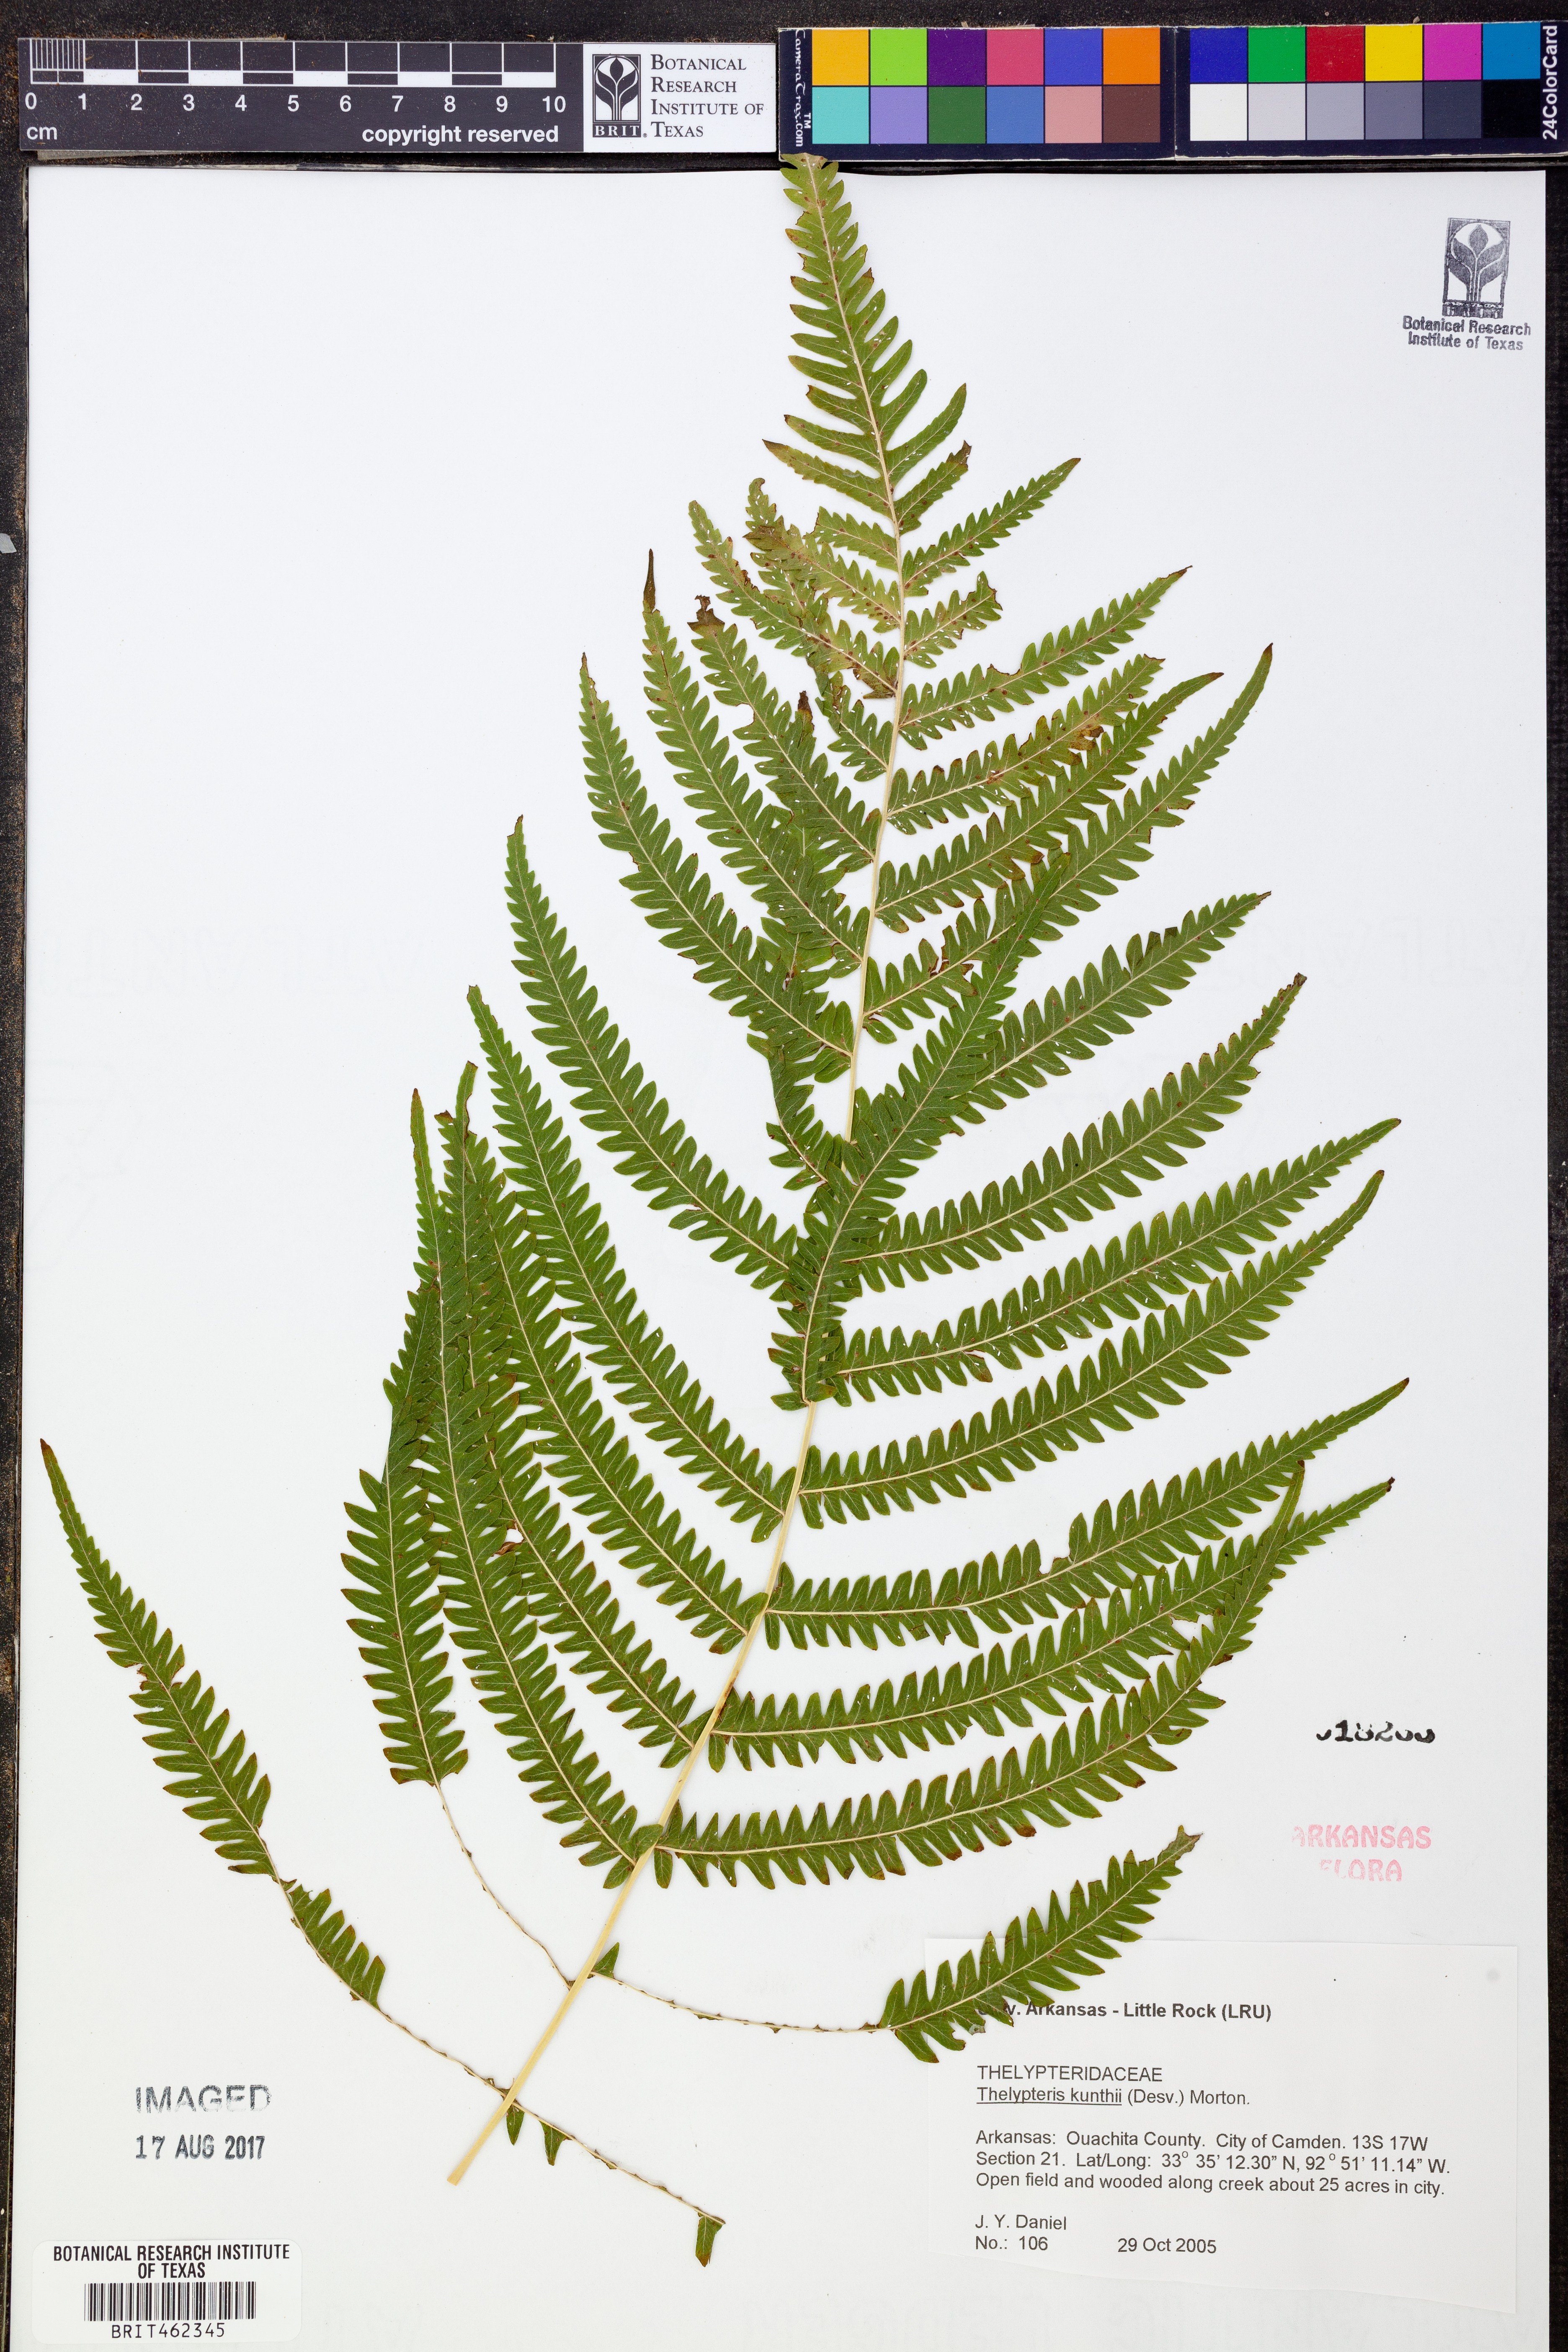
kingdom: Plantae
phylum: Tracheophyta
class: Polypodiopsida
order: Polypodiales
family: Thelypteridaceae
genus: Pelazoneuron
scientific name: Pelazoneuron kunthii
